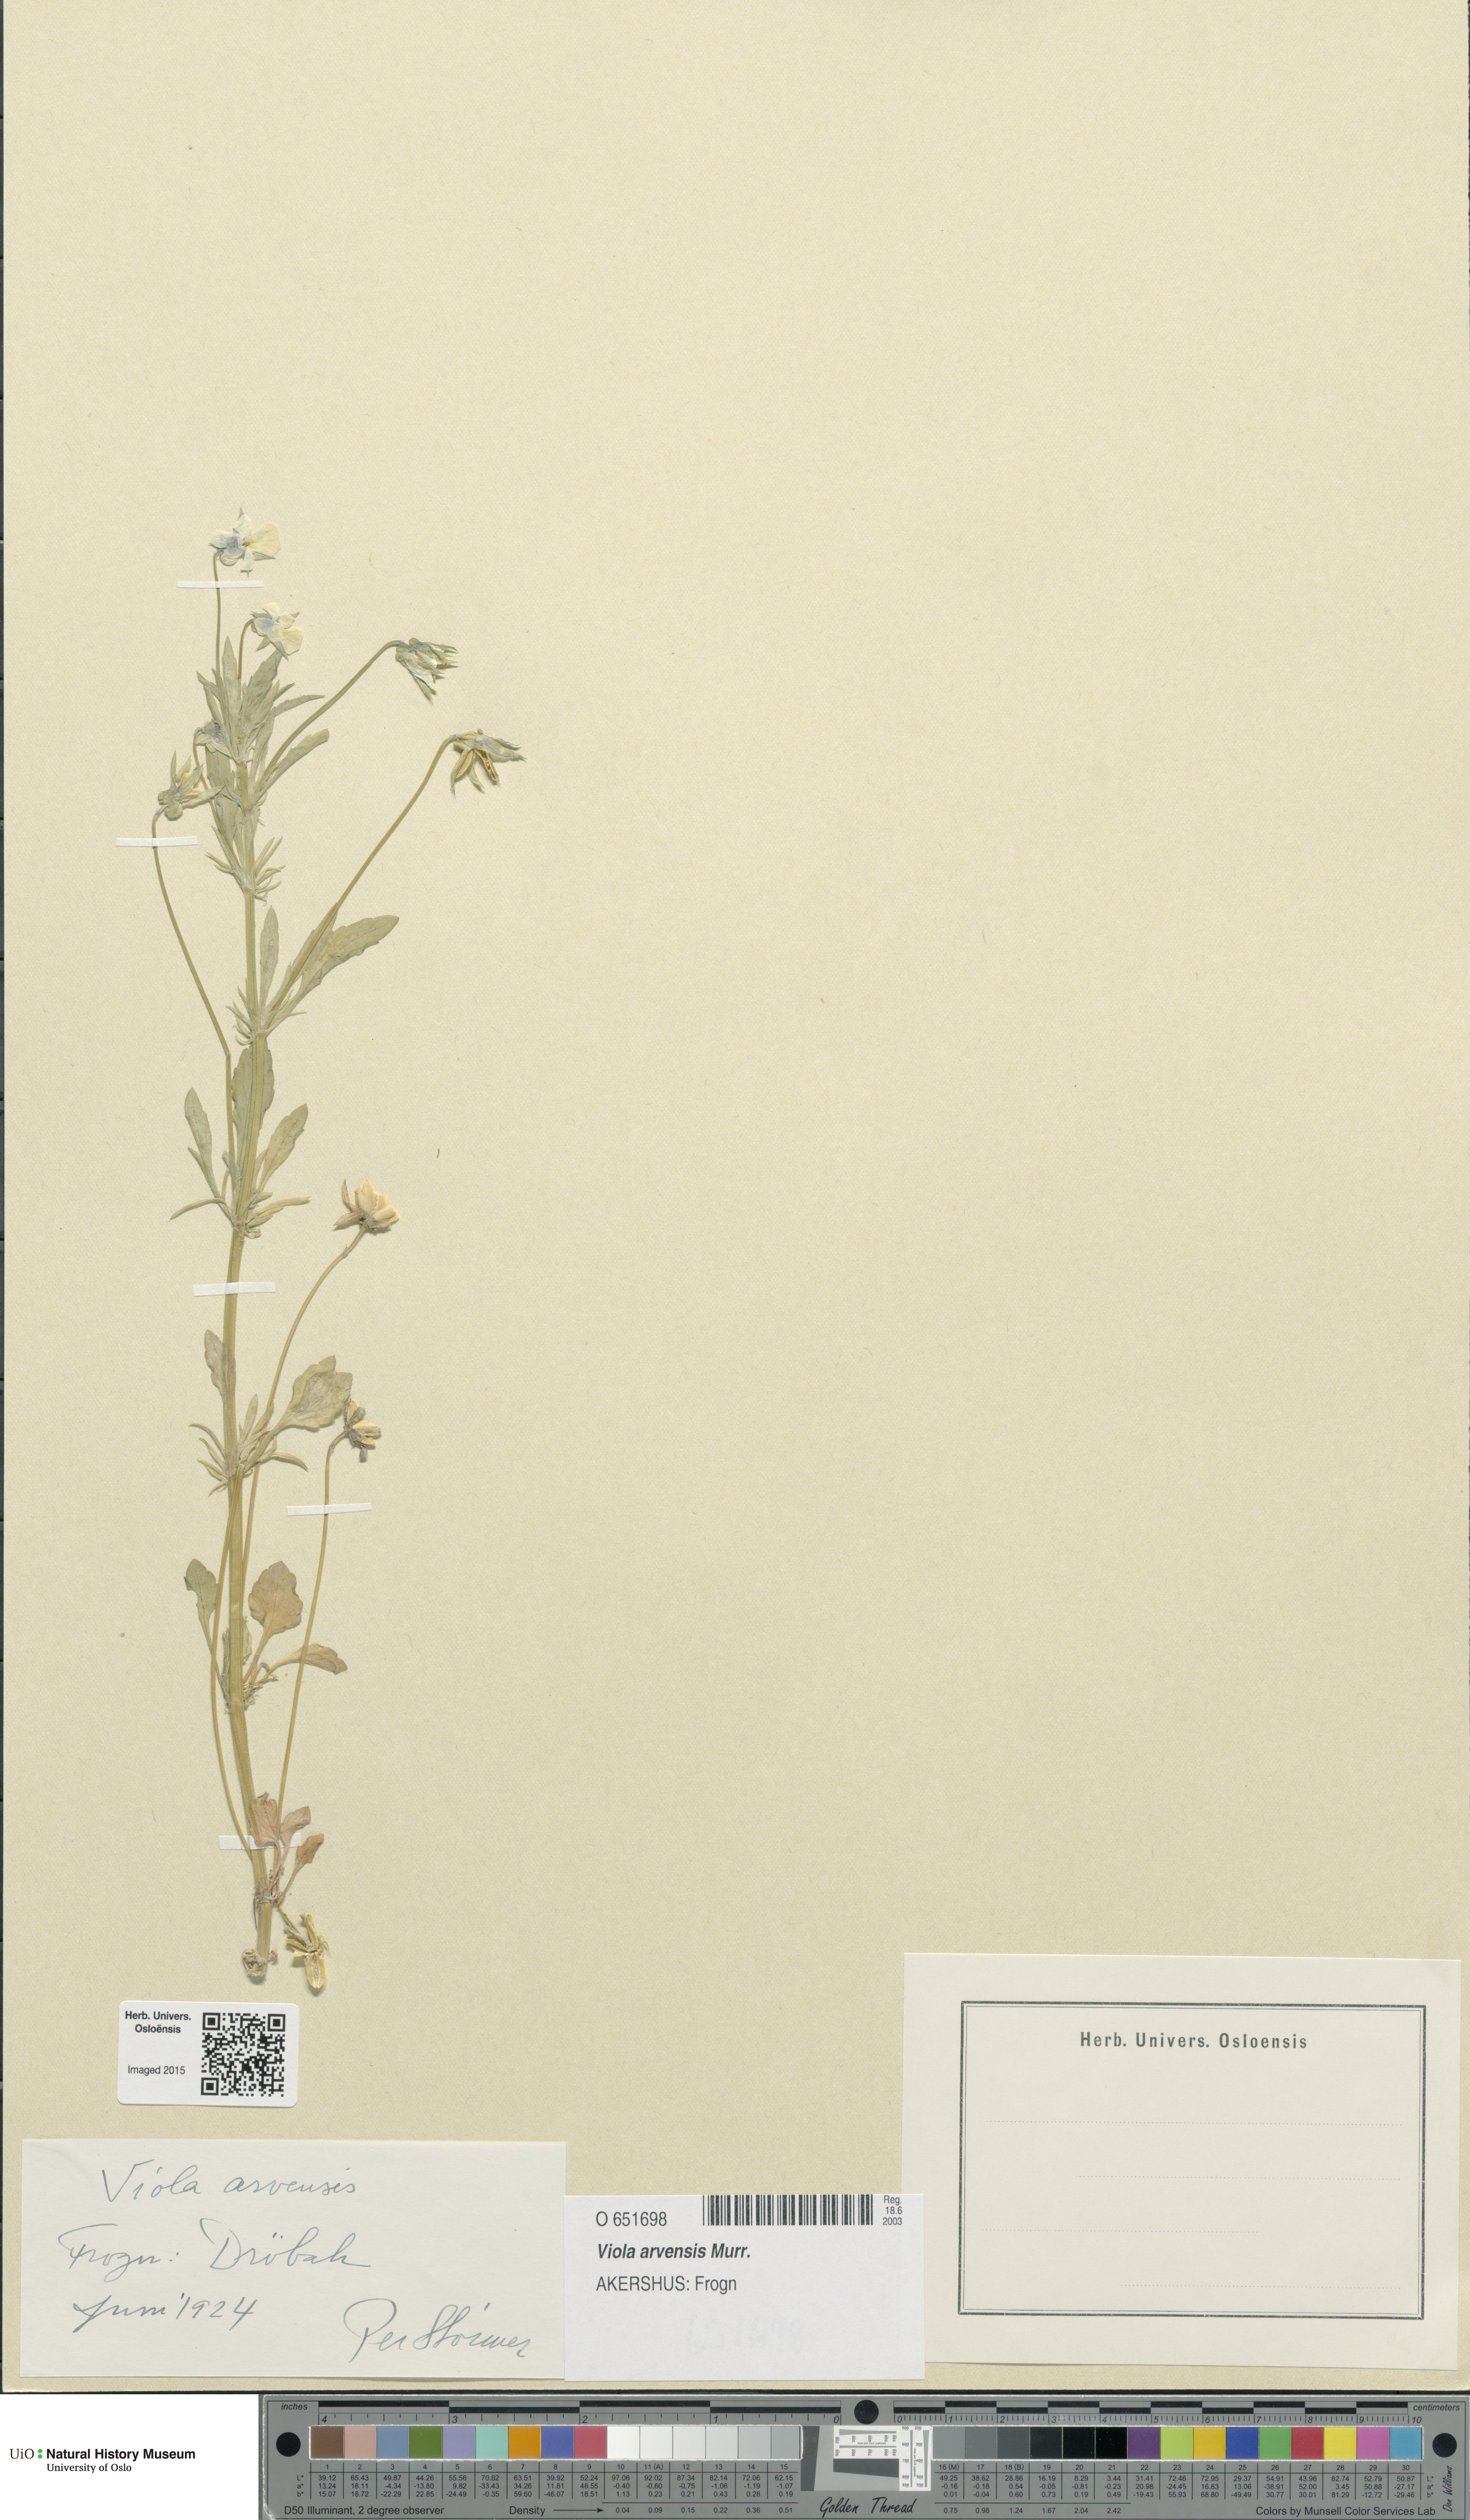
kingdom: Plantae
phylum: Tracheophyta
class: Magnoliopsida
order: Malpighiales
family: Violaceae
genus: Viola
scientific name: Viola arvensis
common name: Field pansy
